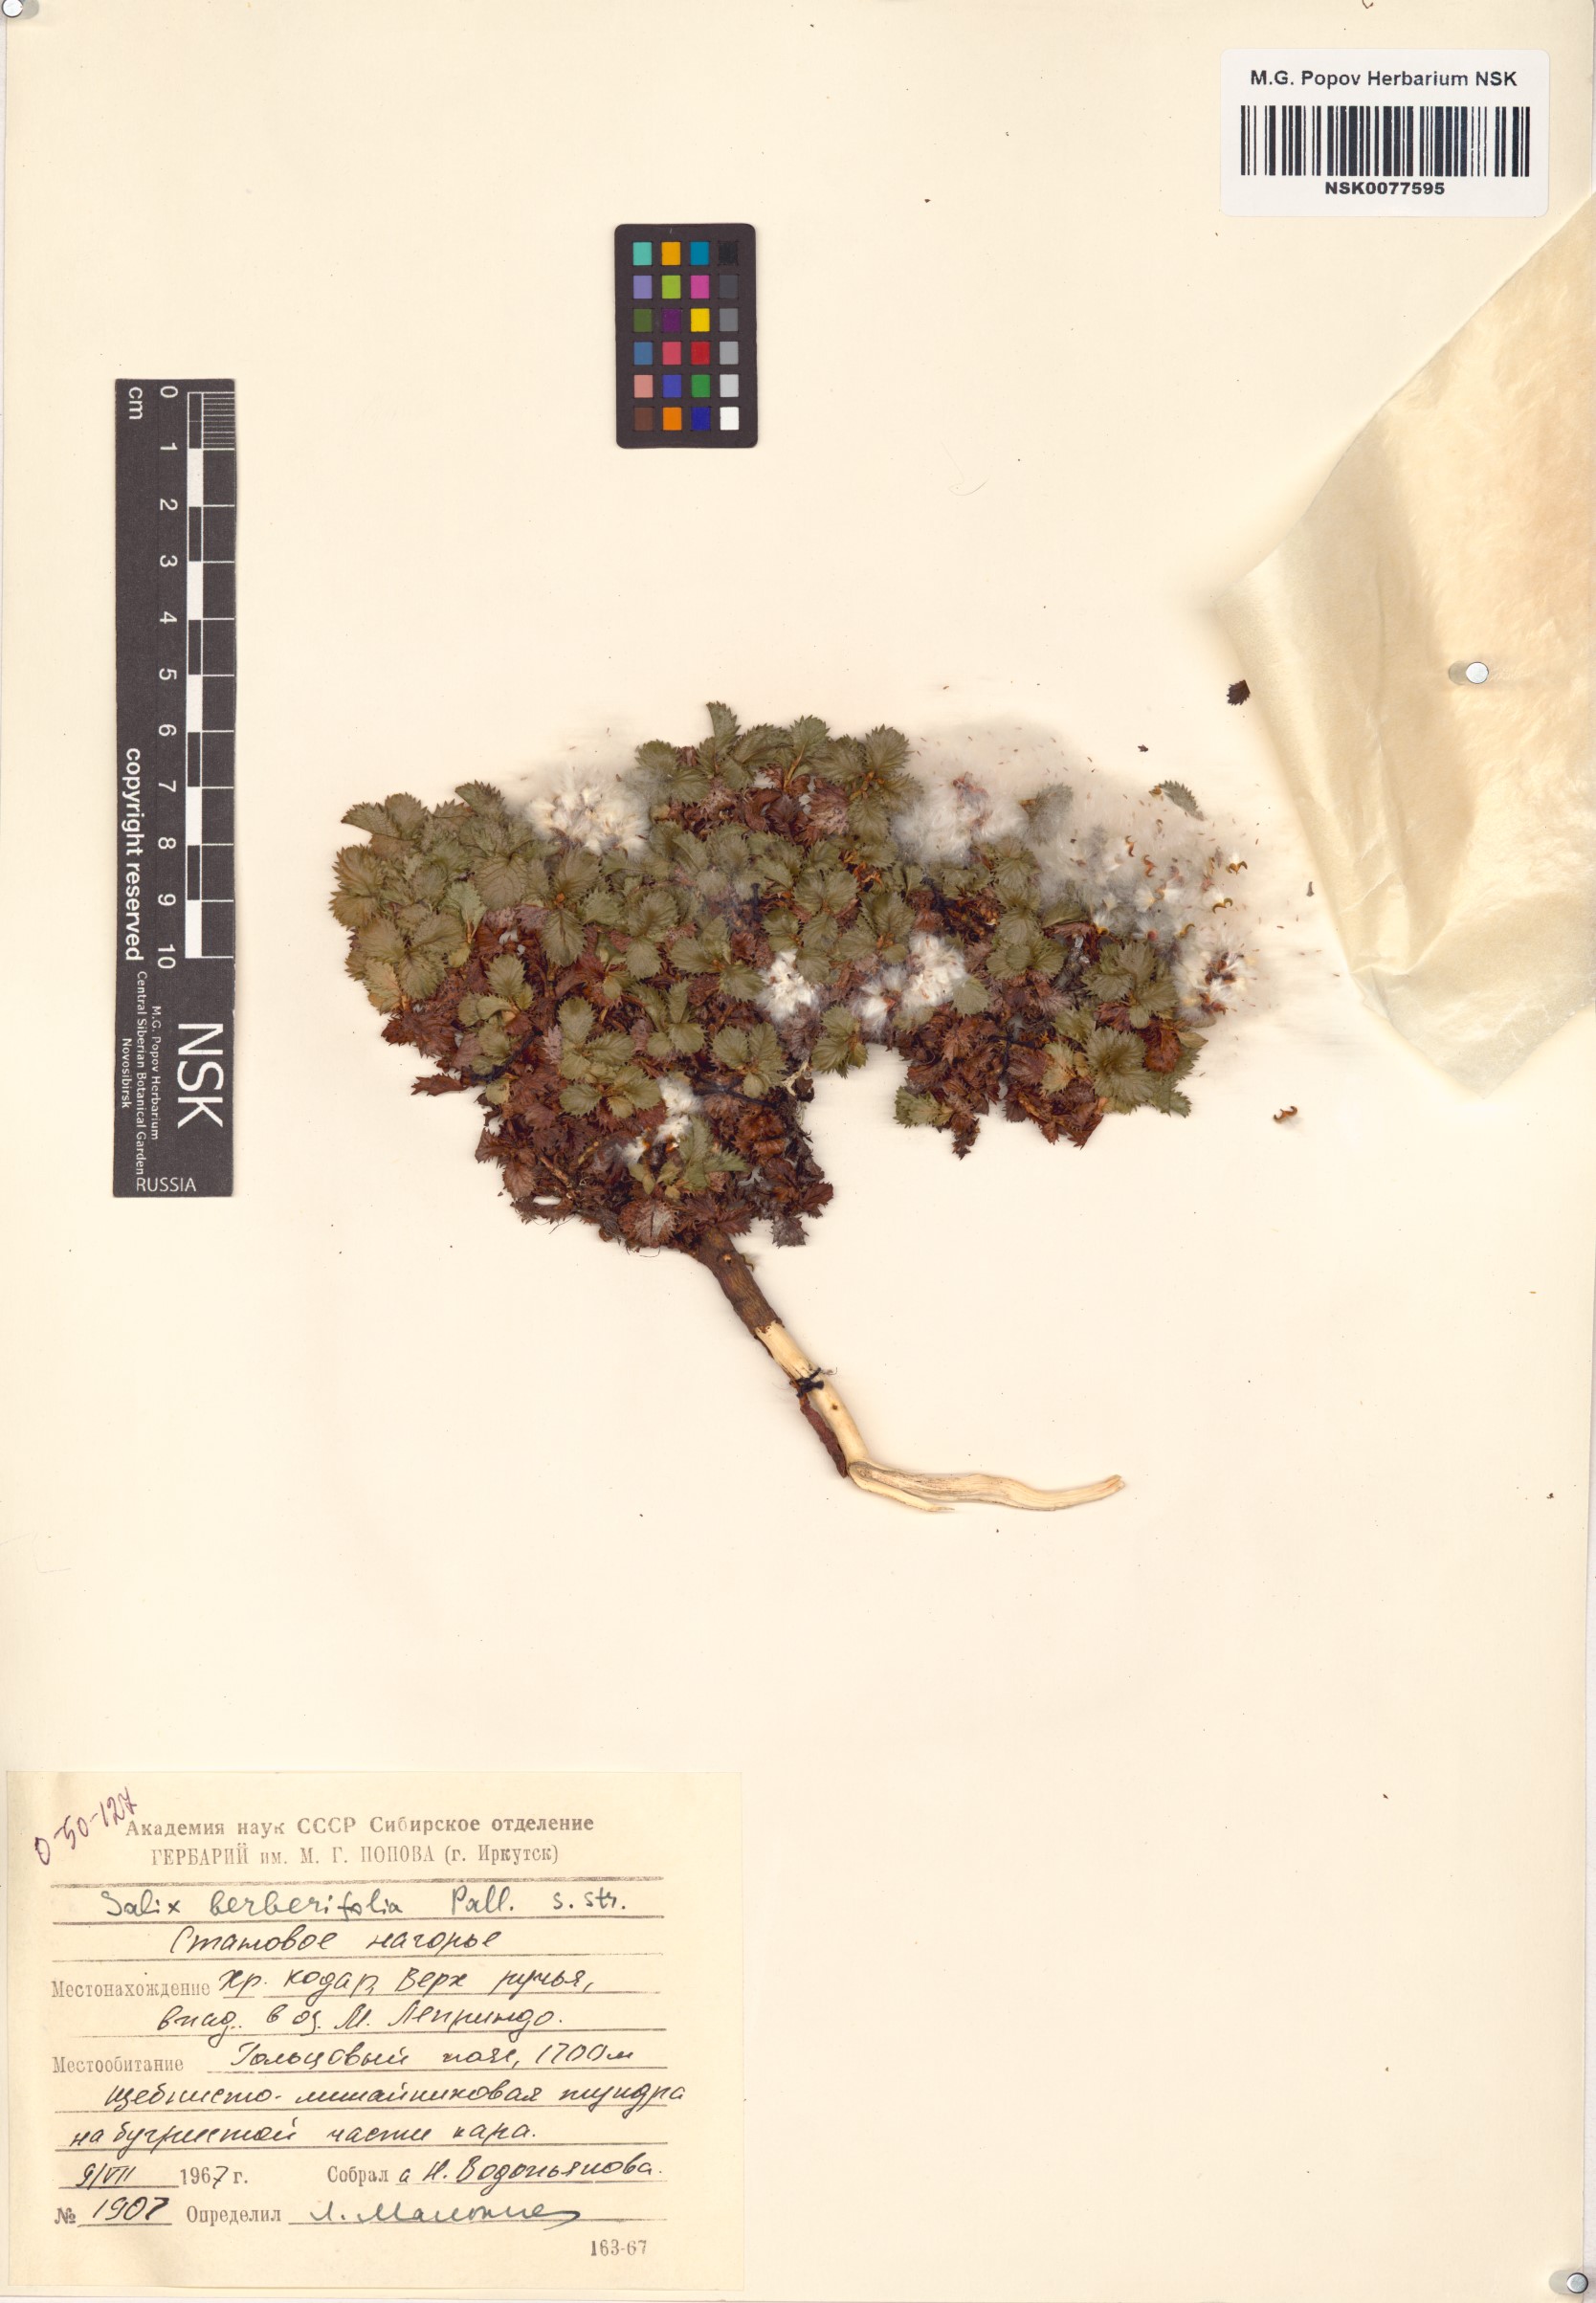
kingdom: Plantae
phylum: Tracheophyta
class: Magnoliopsida
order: Malpighiales
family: Salicaceae
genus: Salix
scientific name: Salix berberifolia
